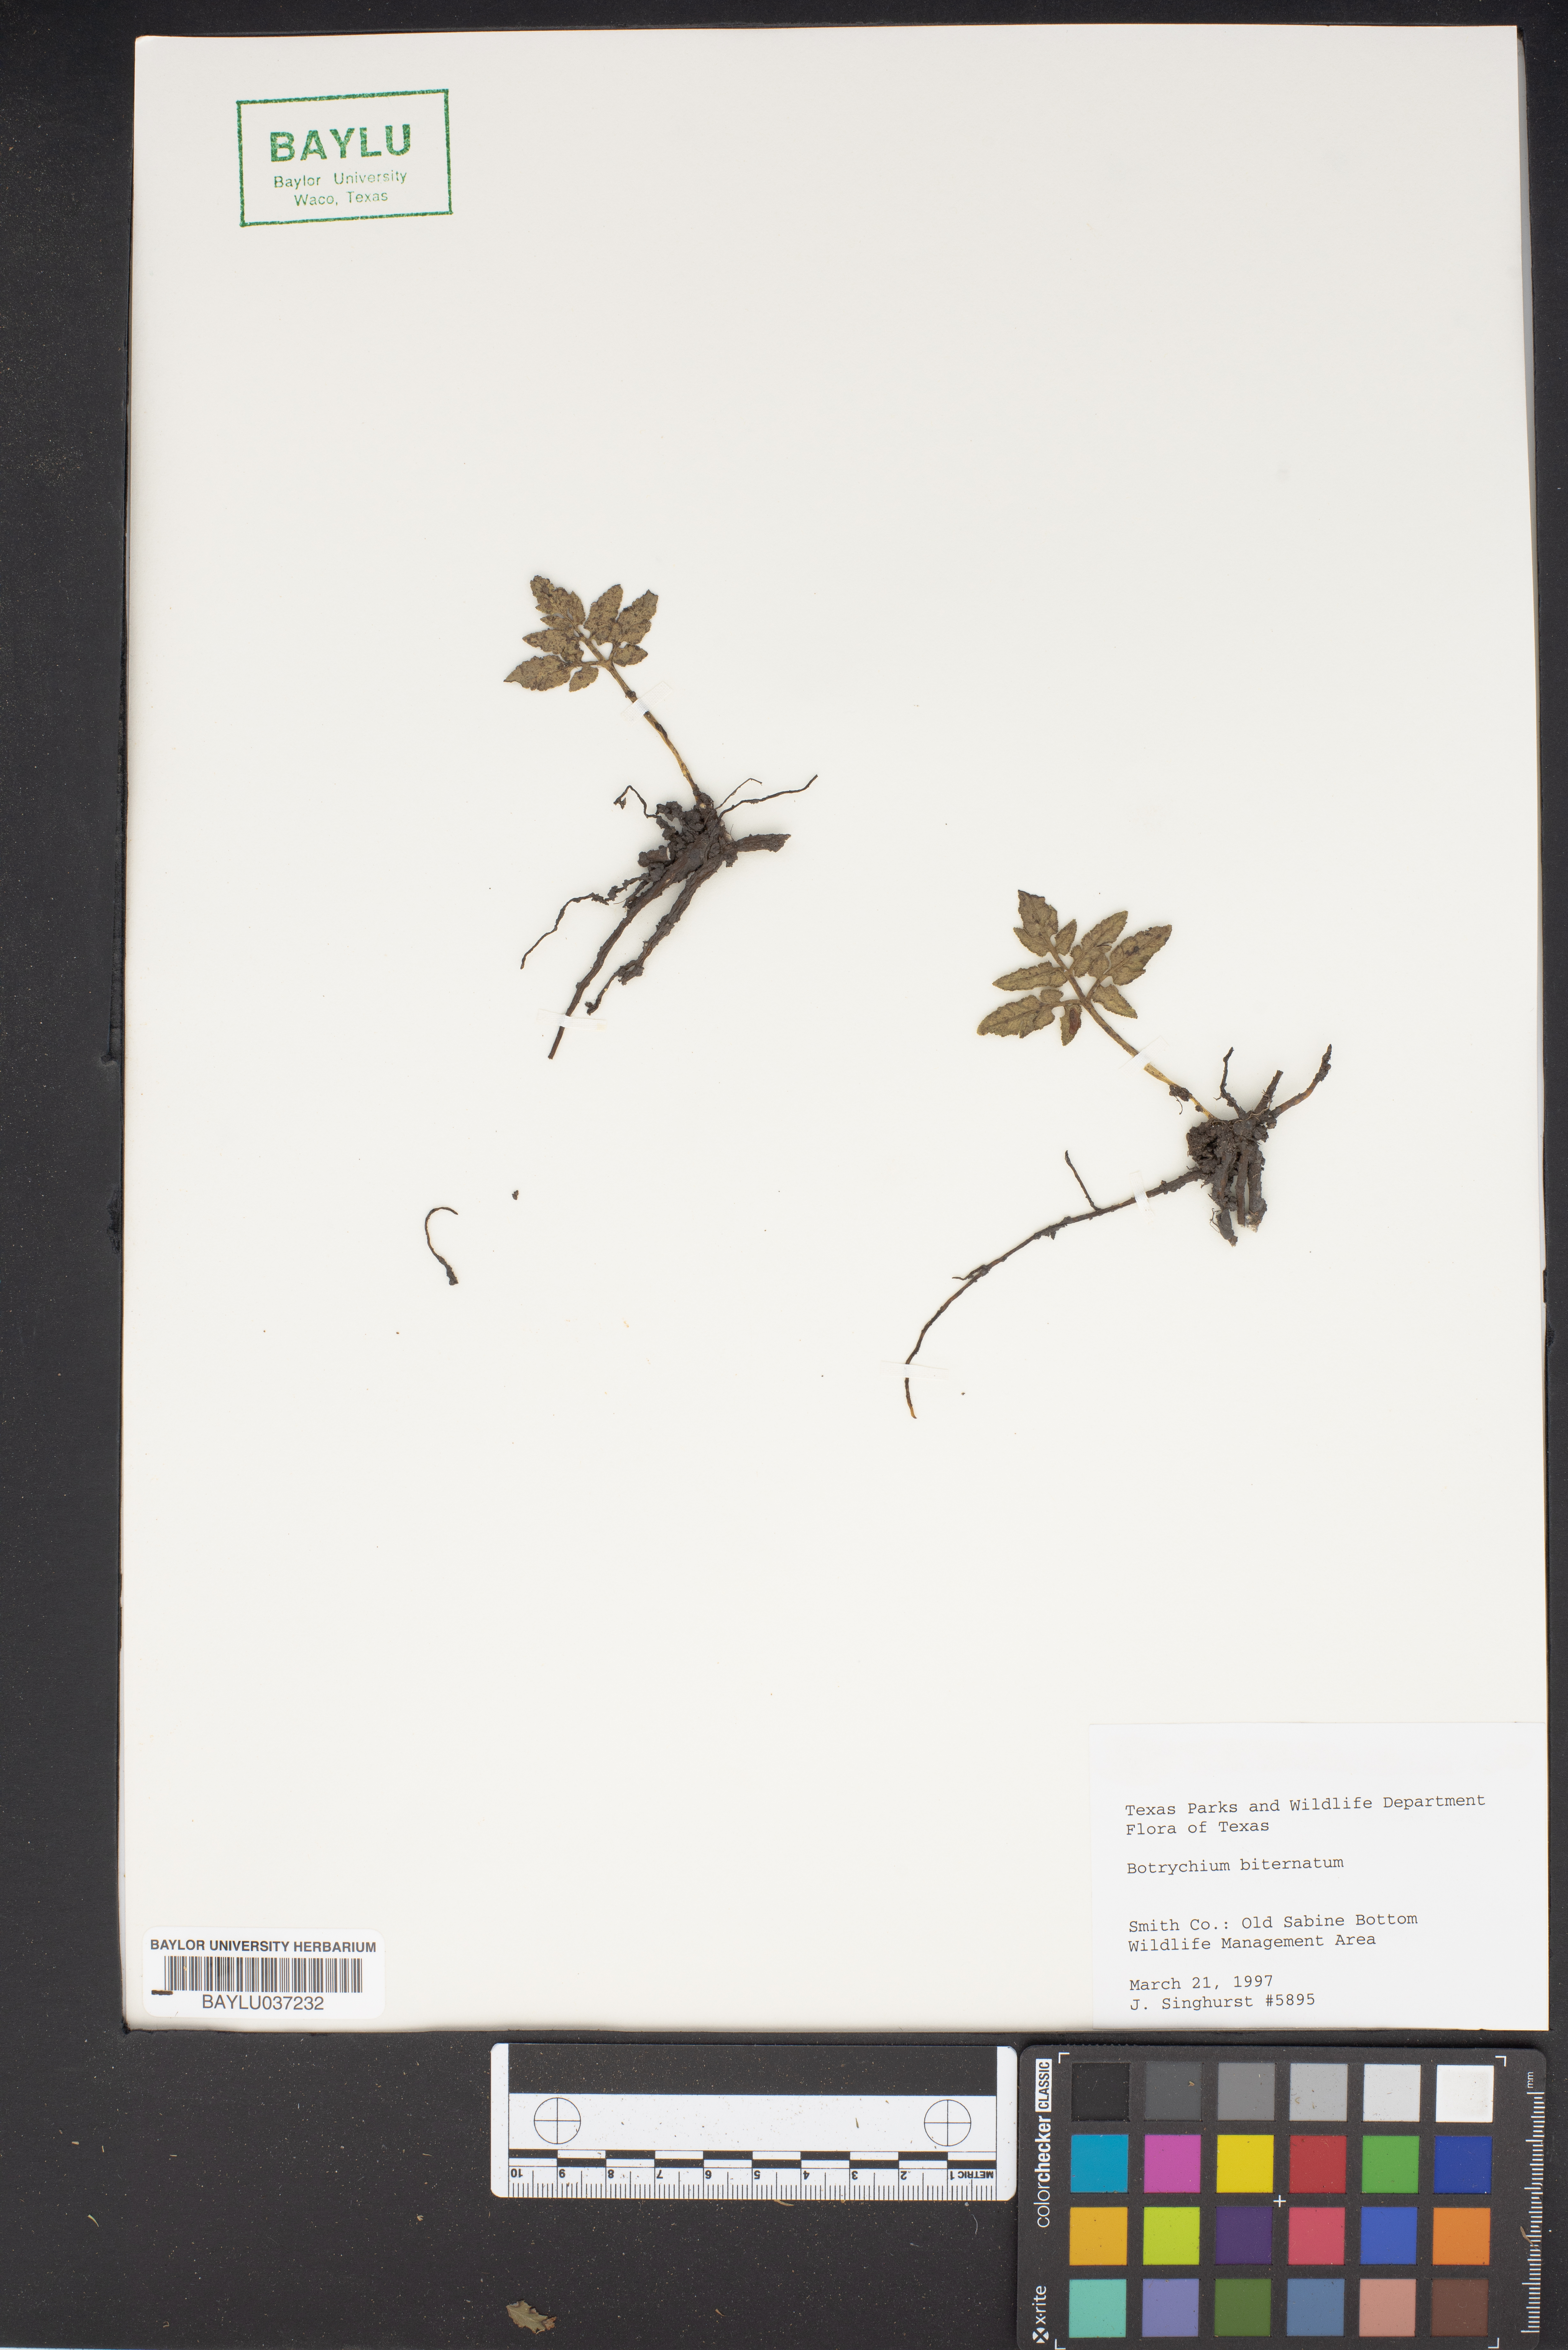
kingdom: Plantae
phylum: Tracheophyta
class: Polypodiopsida
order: Ophioglossales
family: Ophioglossaceae
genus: Sceptridium
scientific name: Sceptridium biternatum
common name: Sparse-lobed grapefern
